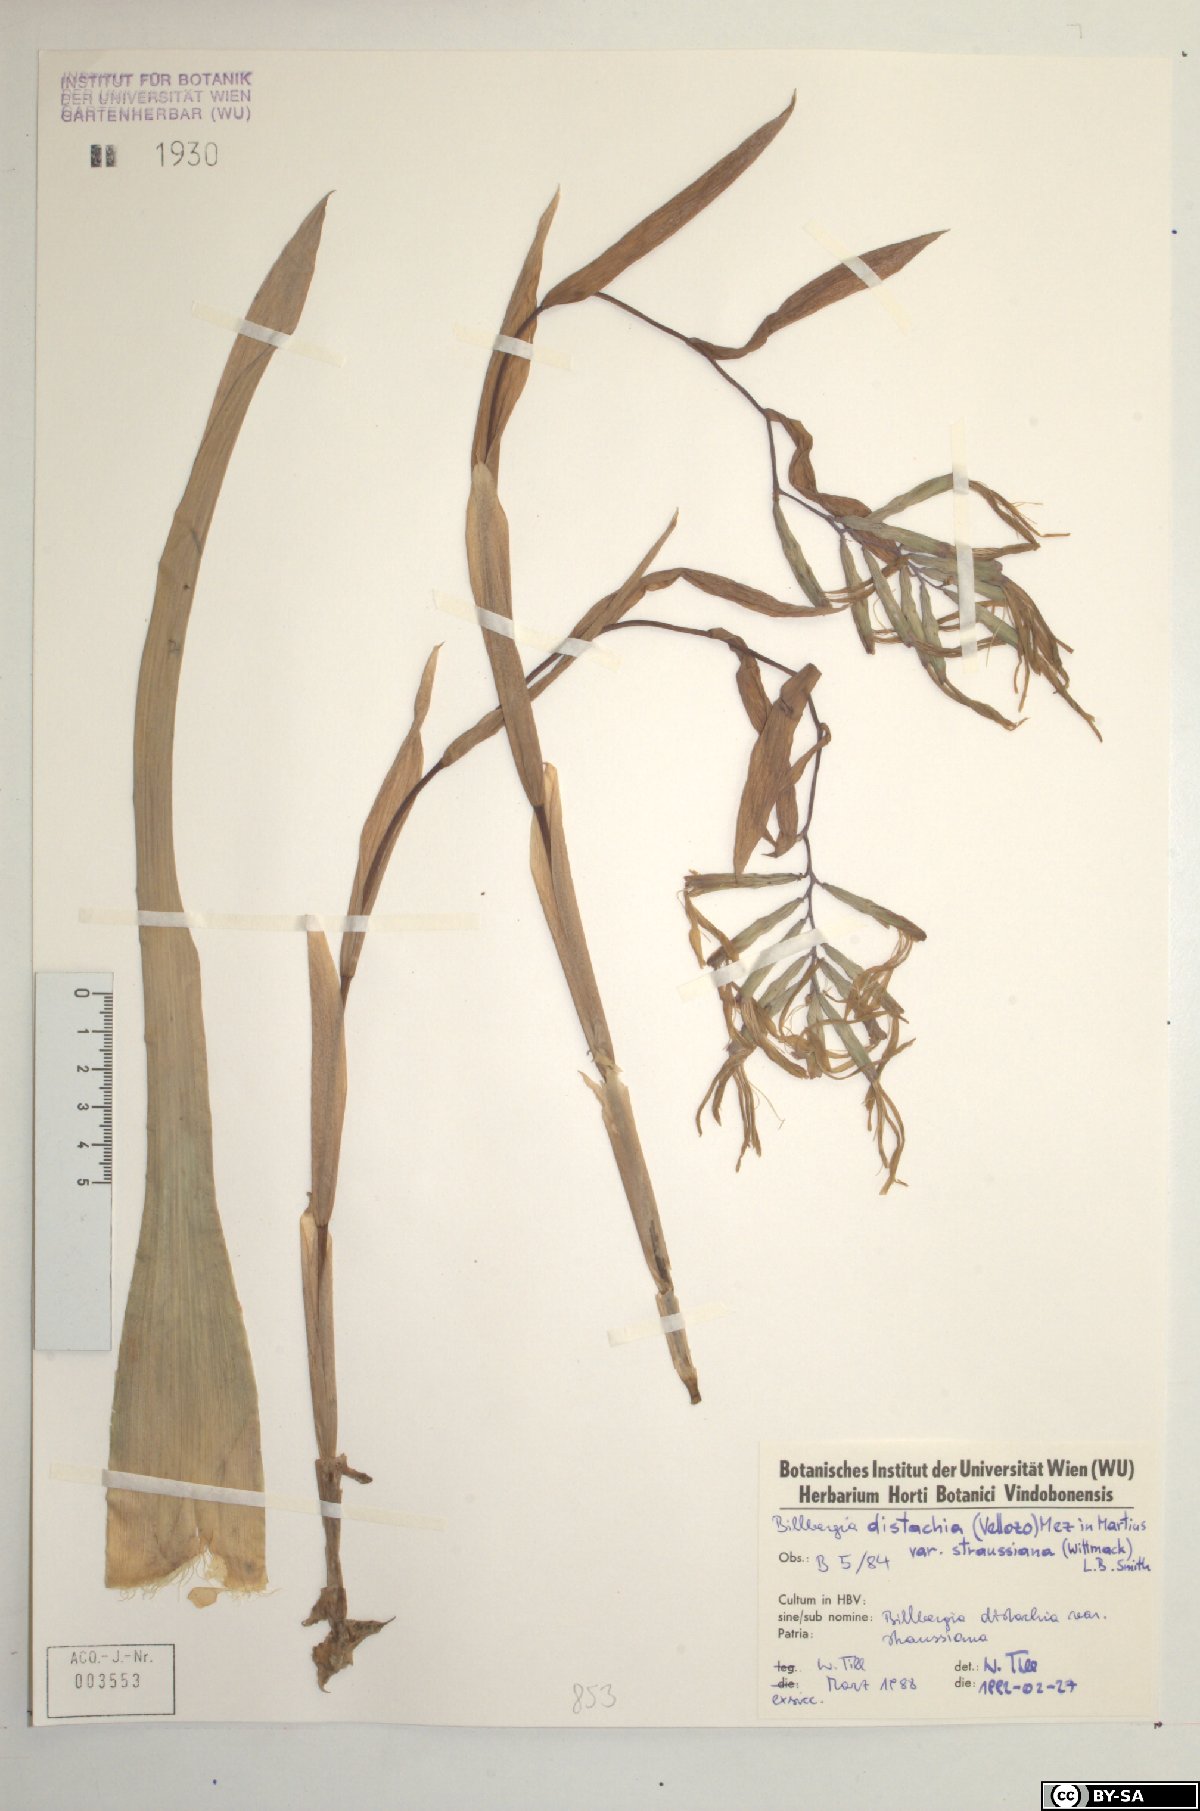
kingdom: Plantae
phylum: Tracheophyta
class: Liliopsida
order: Poales
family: Bromeliaceae
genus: Billbergia
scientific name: Billbergia distachia
